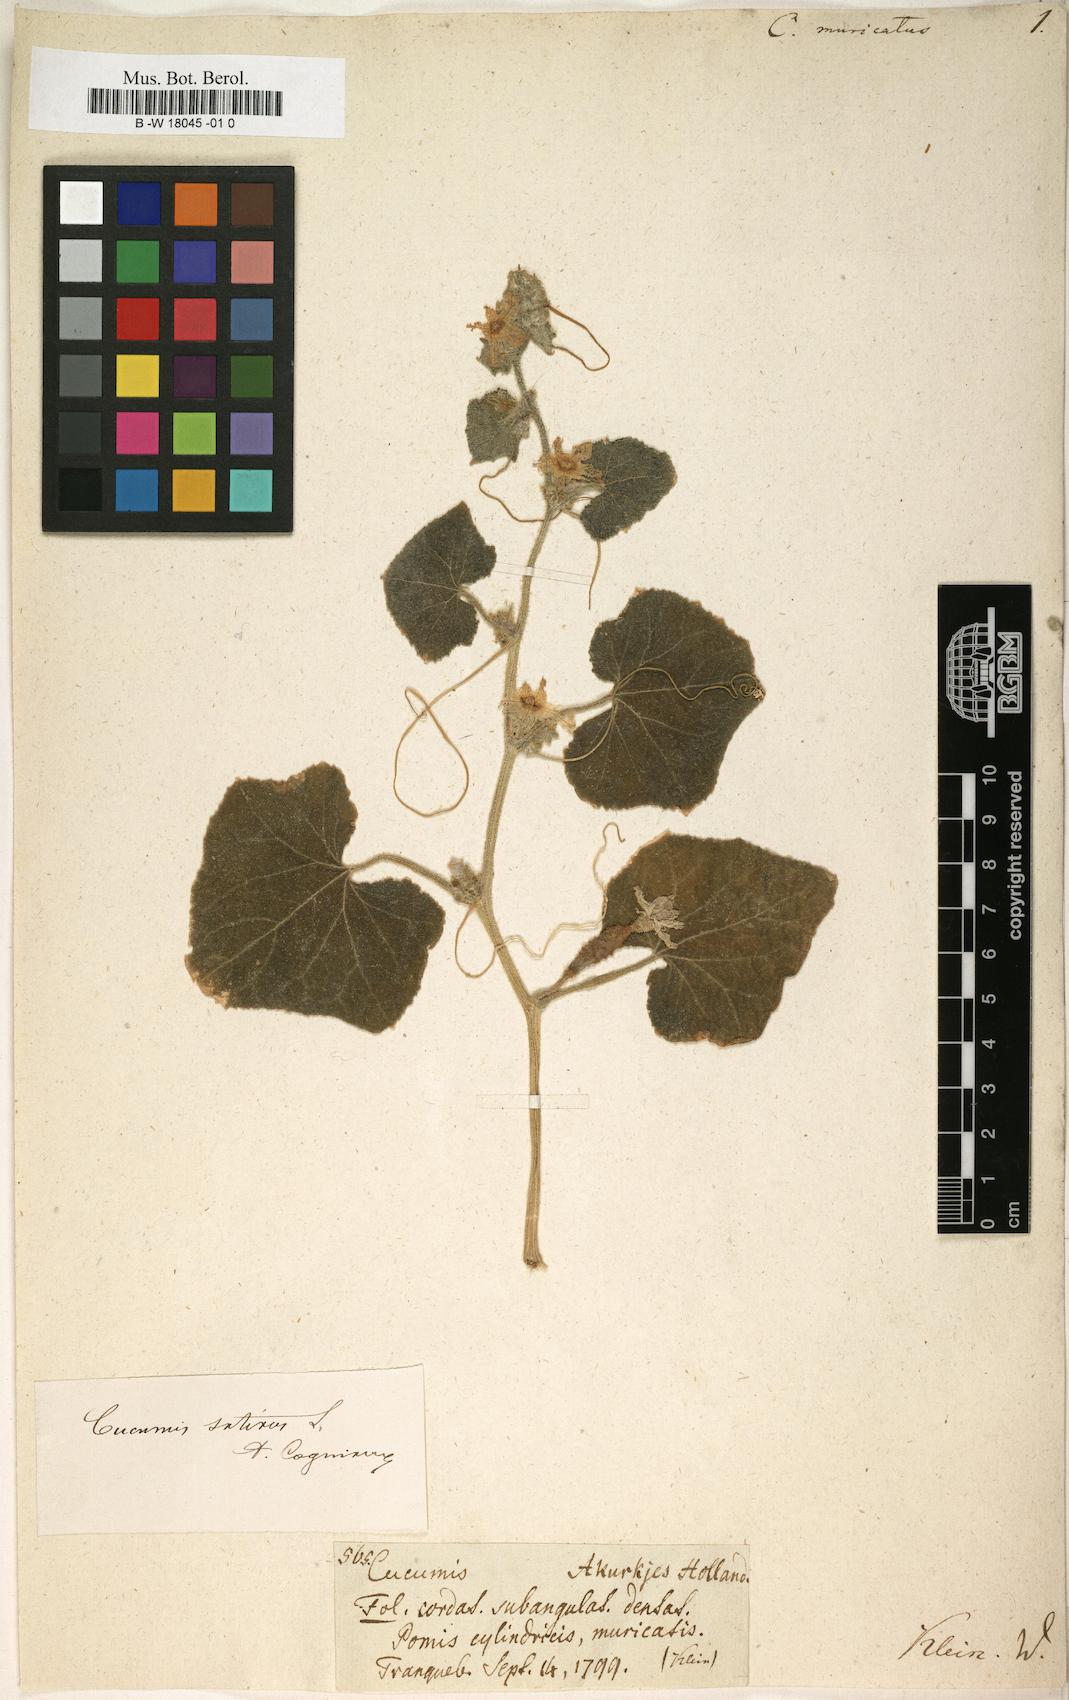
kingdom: Plantae
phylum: Tracheophyta
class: Magnoliopsida
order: Cucurbitales
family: Cucurbitaceae
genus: Cucumis
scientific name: Cucumis sativus
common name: Cucumber
